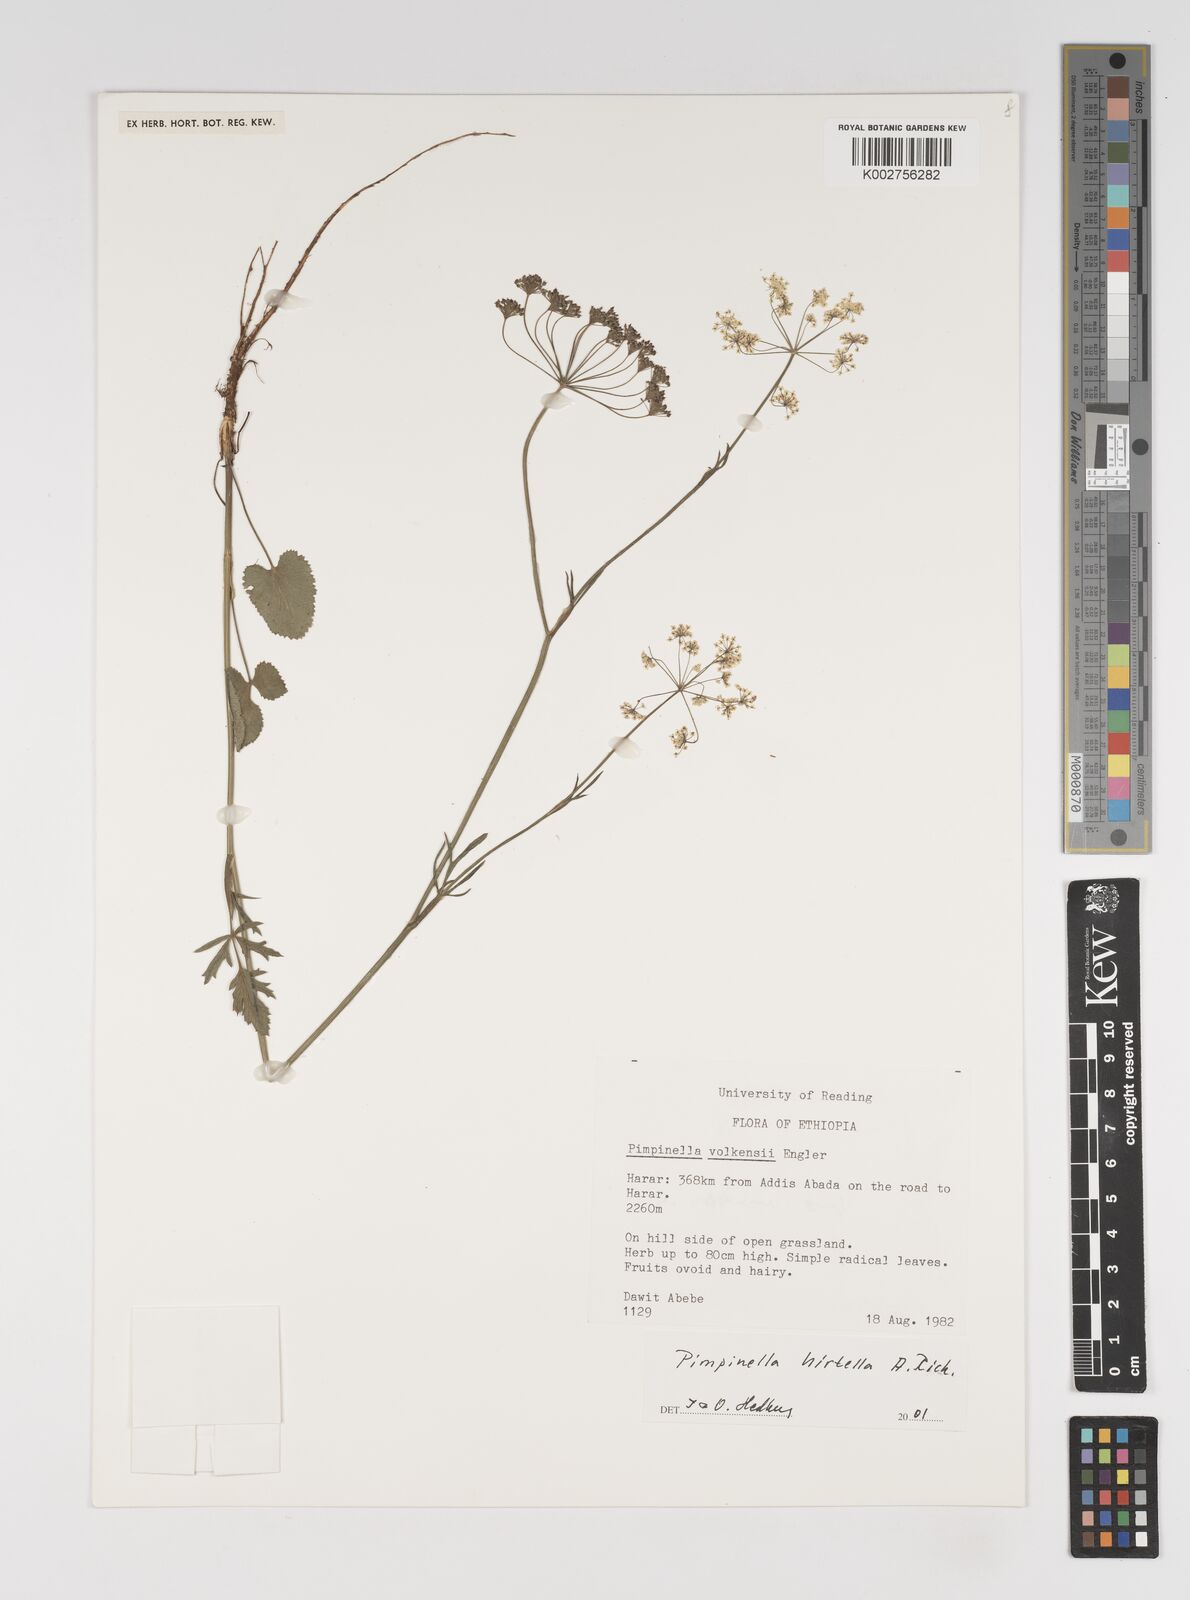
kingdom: Plantae
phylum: Tracheophyta
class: Magnoliopsida
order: Apiales
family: Apiaceae
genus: Pimpinella
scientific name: Pimpinella hirtella
